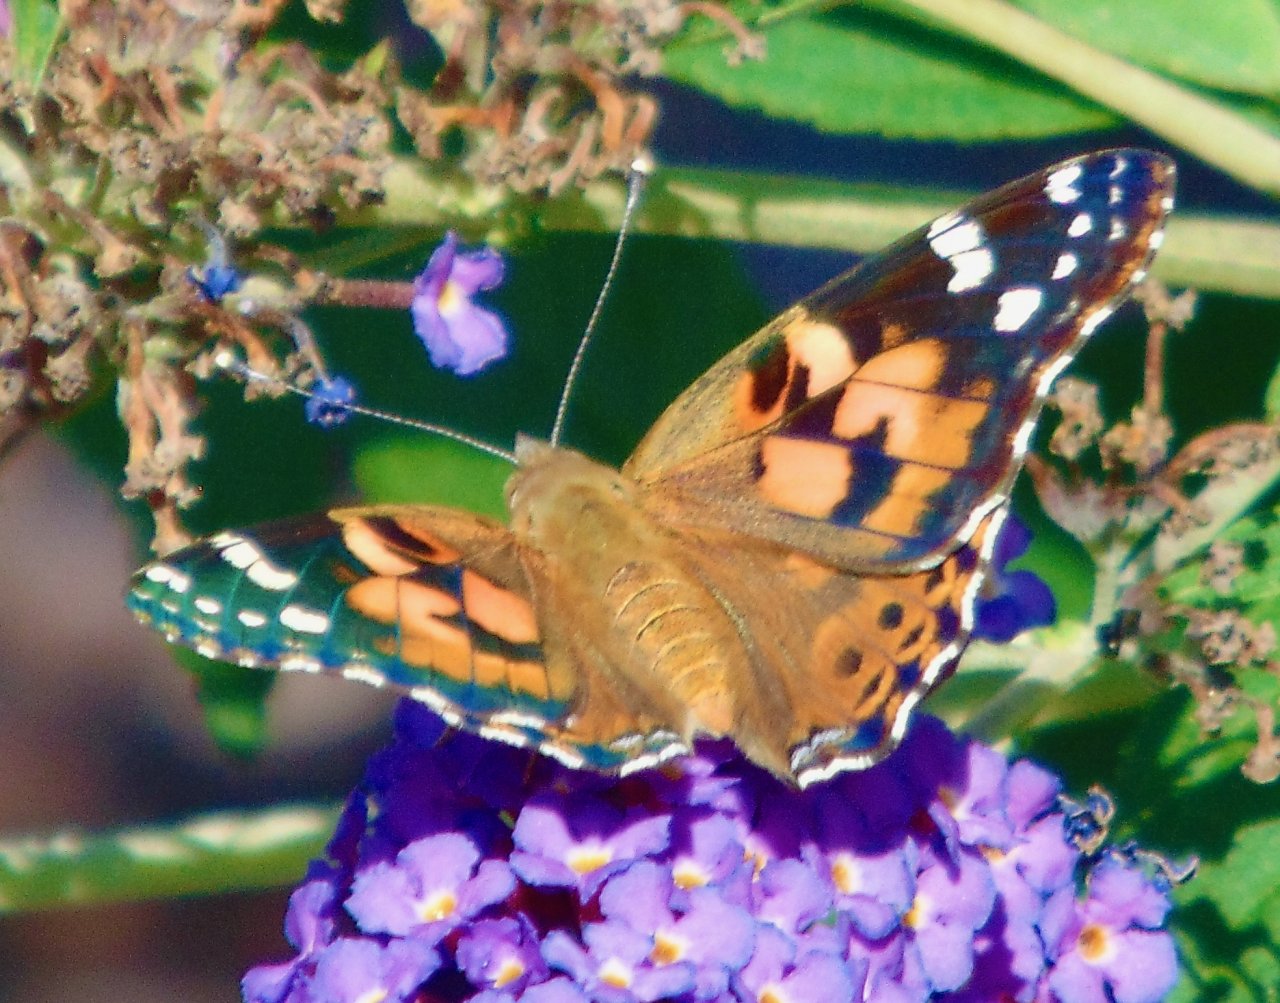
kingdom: Animalia
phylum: Arthropoda
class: Insecta
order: Lepidoptera
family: Nymphalidae
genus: Vanessa
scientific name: Vanessa cardui
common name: Painted Lady
